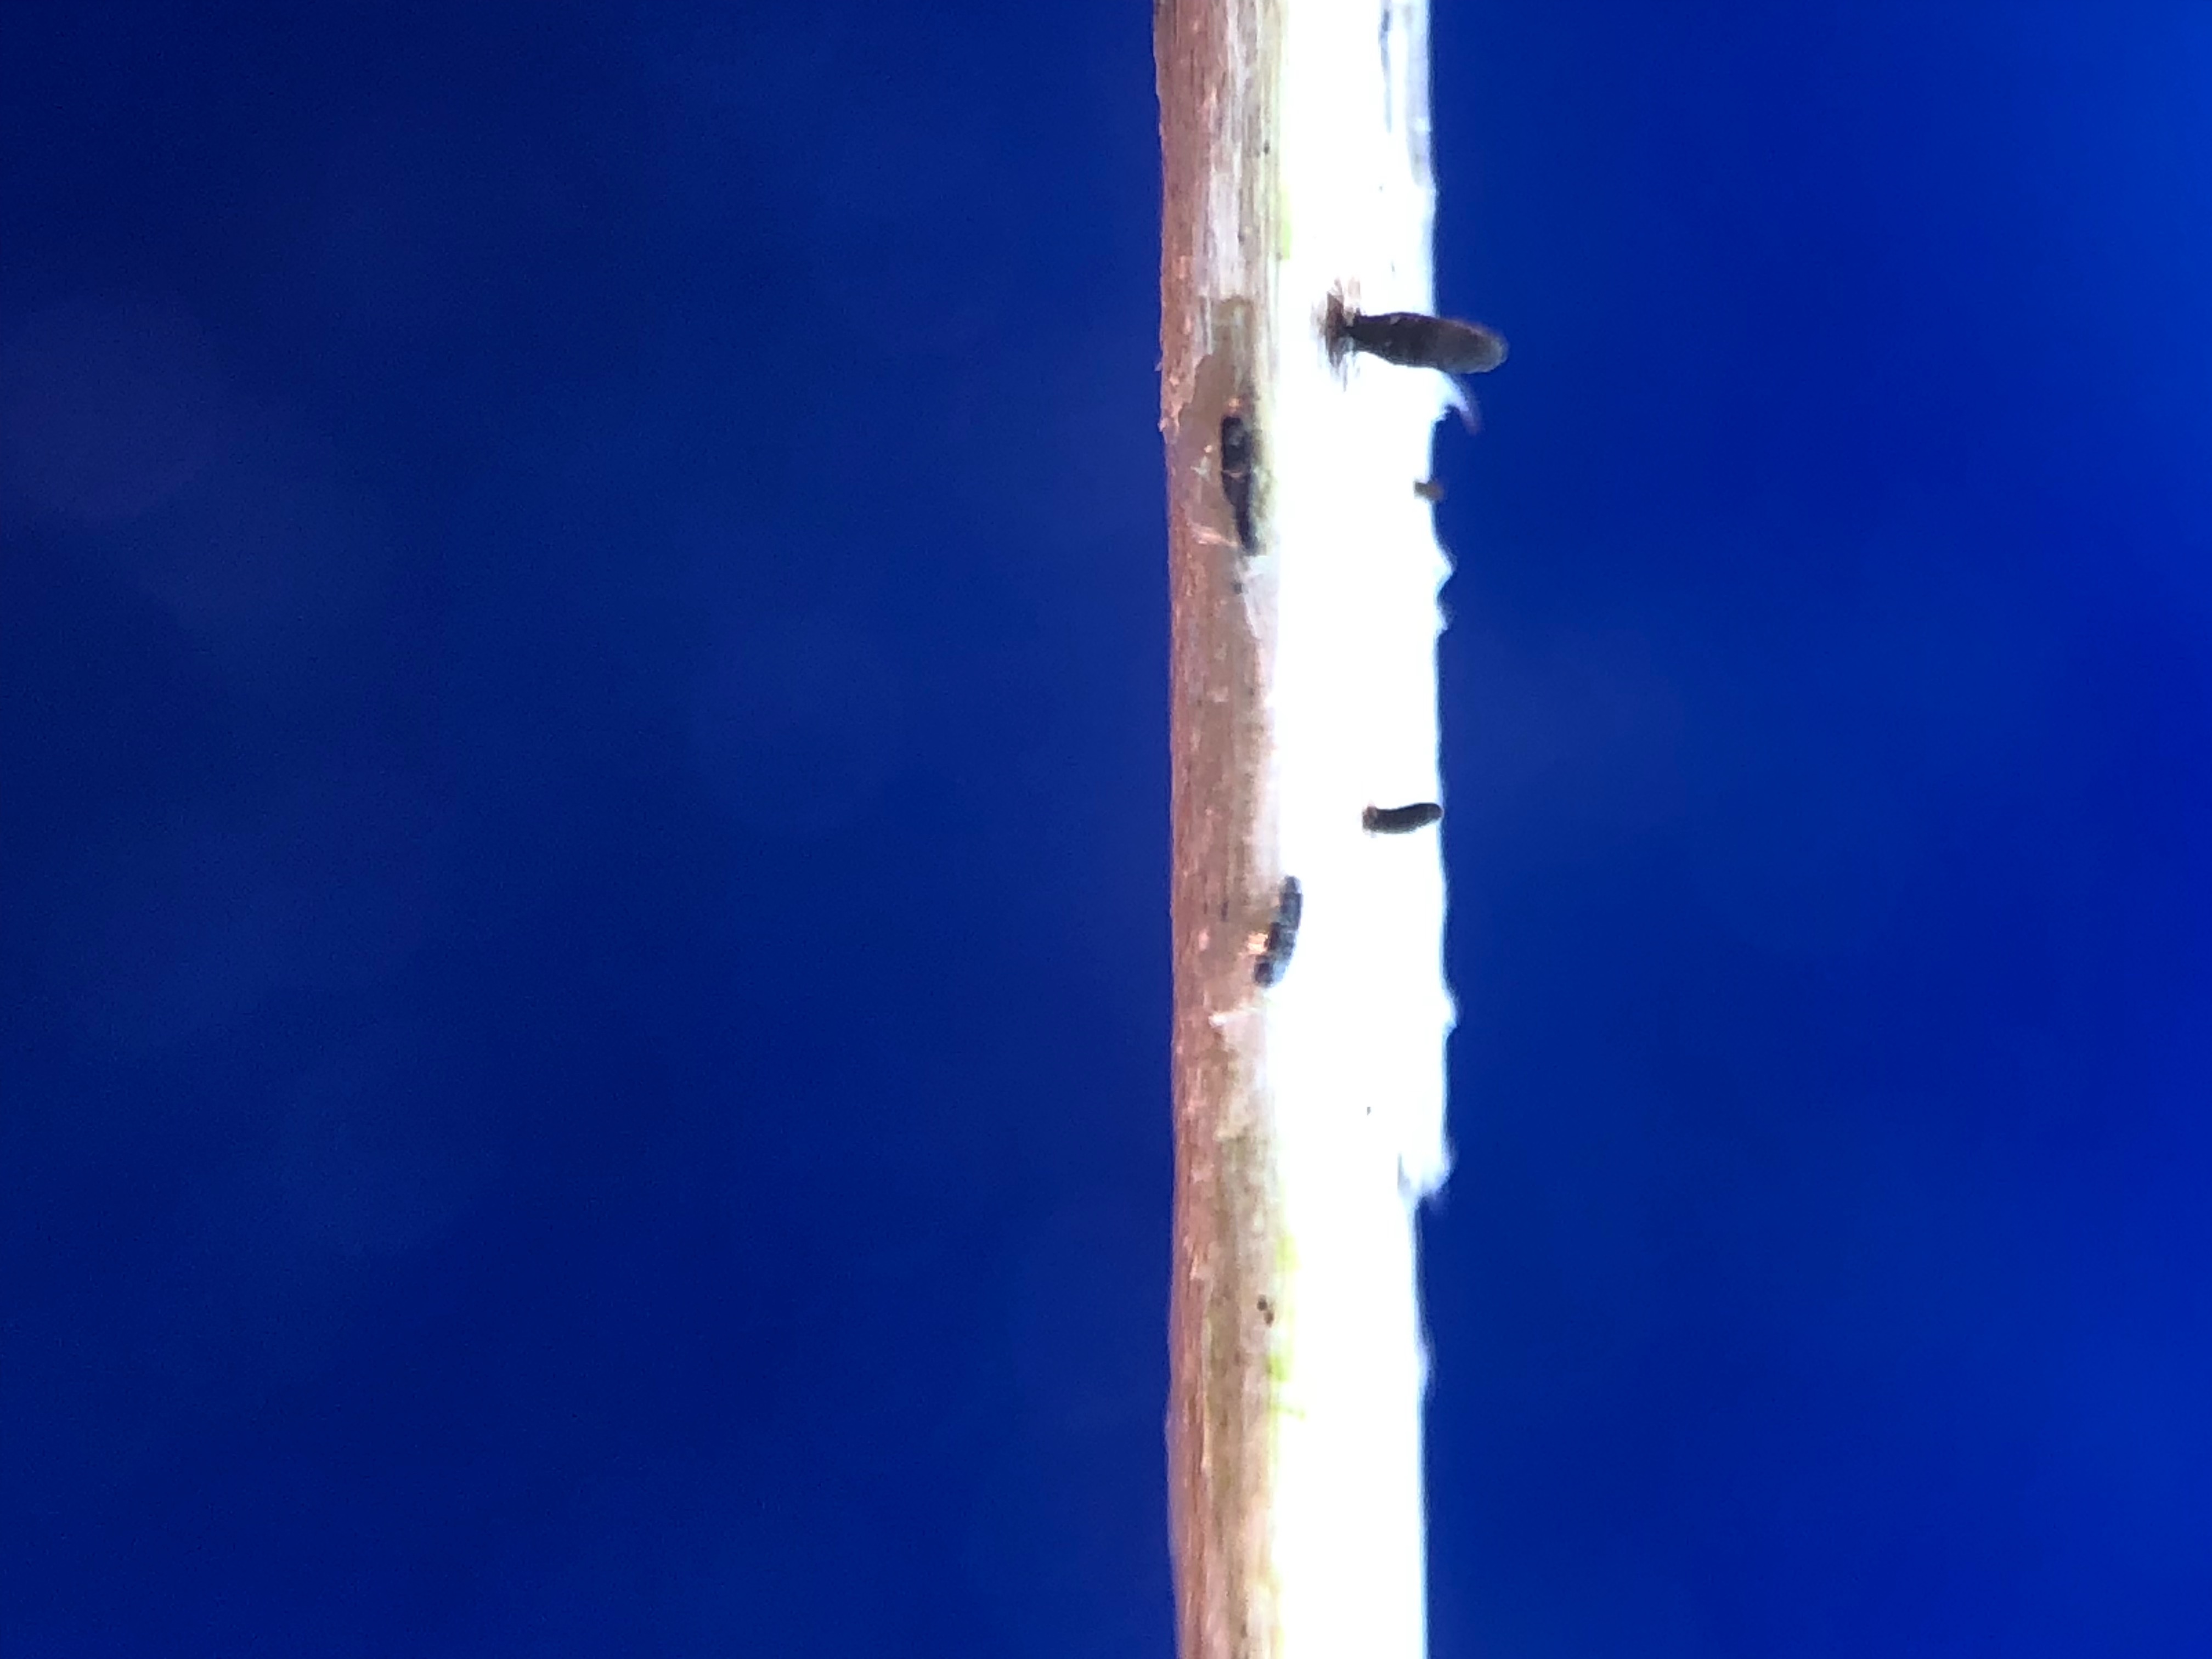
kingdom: Fungi
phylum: Ascomycota
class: Dothideomycetes
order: Acrospermales
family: Acrospermaceae
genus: Acrospermum
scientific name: Acrospermum pallidulum
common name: snerre-stængeltunge
